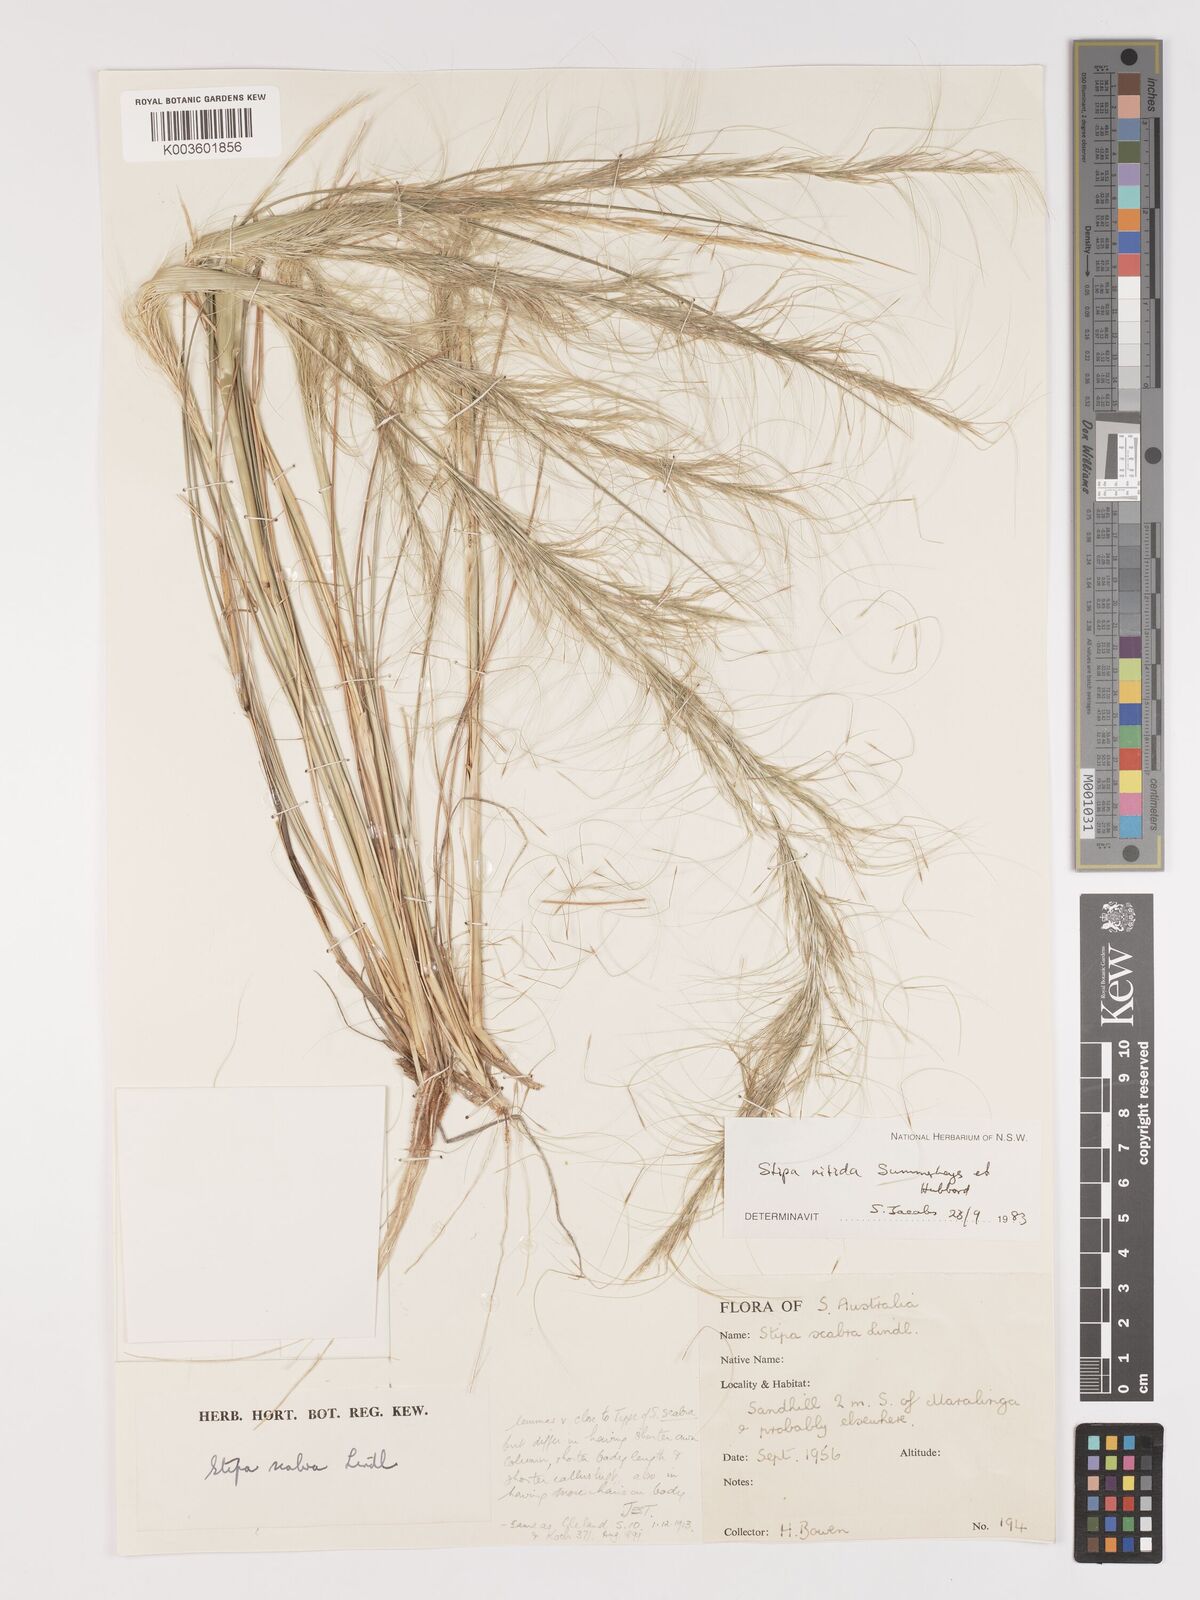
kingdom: Plantae
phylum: Tracheophyta
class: Liliopsida
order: Poales
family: Poaceae
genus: Austrostipa
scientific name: Austrostipa nitida
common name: Balcarra grass
